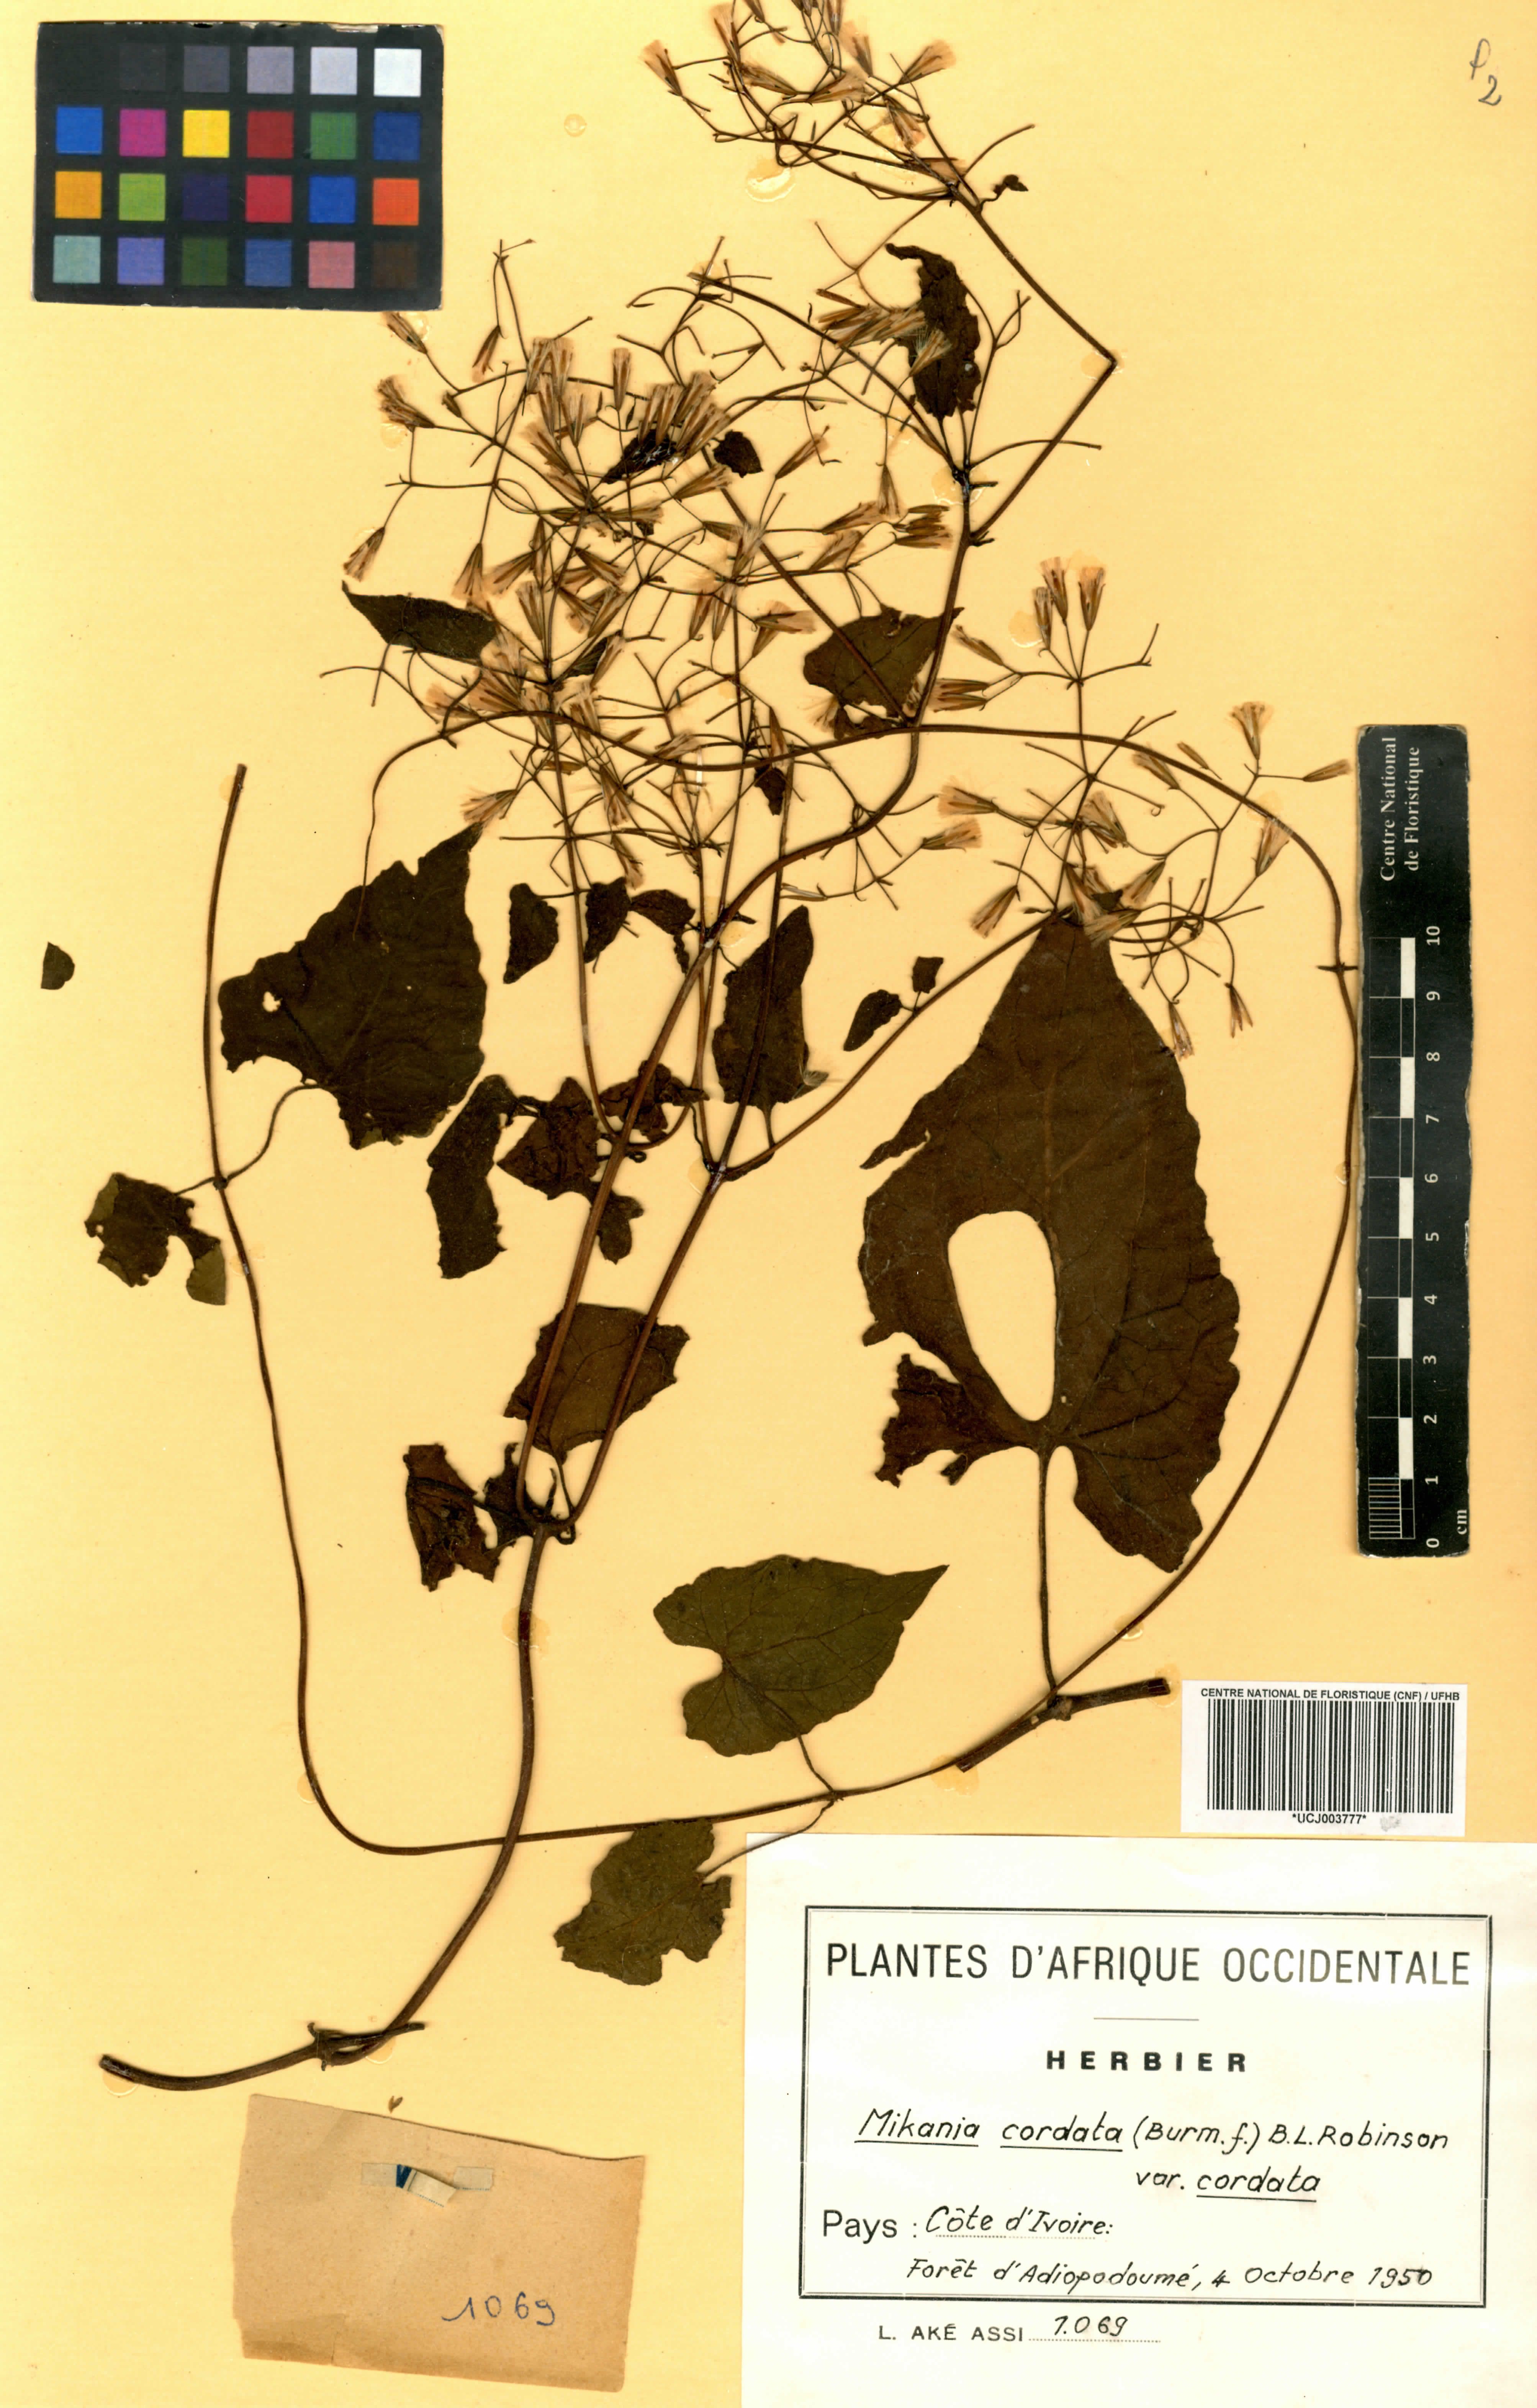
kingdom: Plantae
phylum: Tracheophyta
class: Magnoliopsida
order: Asterales
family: Asteraceae
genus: Mikania
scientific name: Mikania cordata
